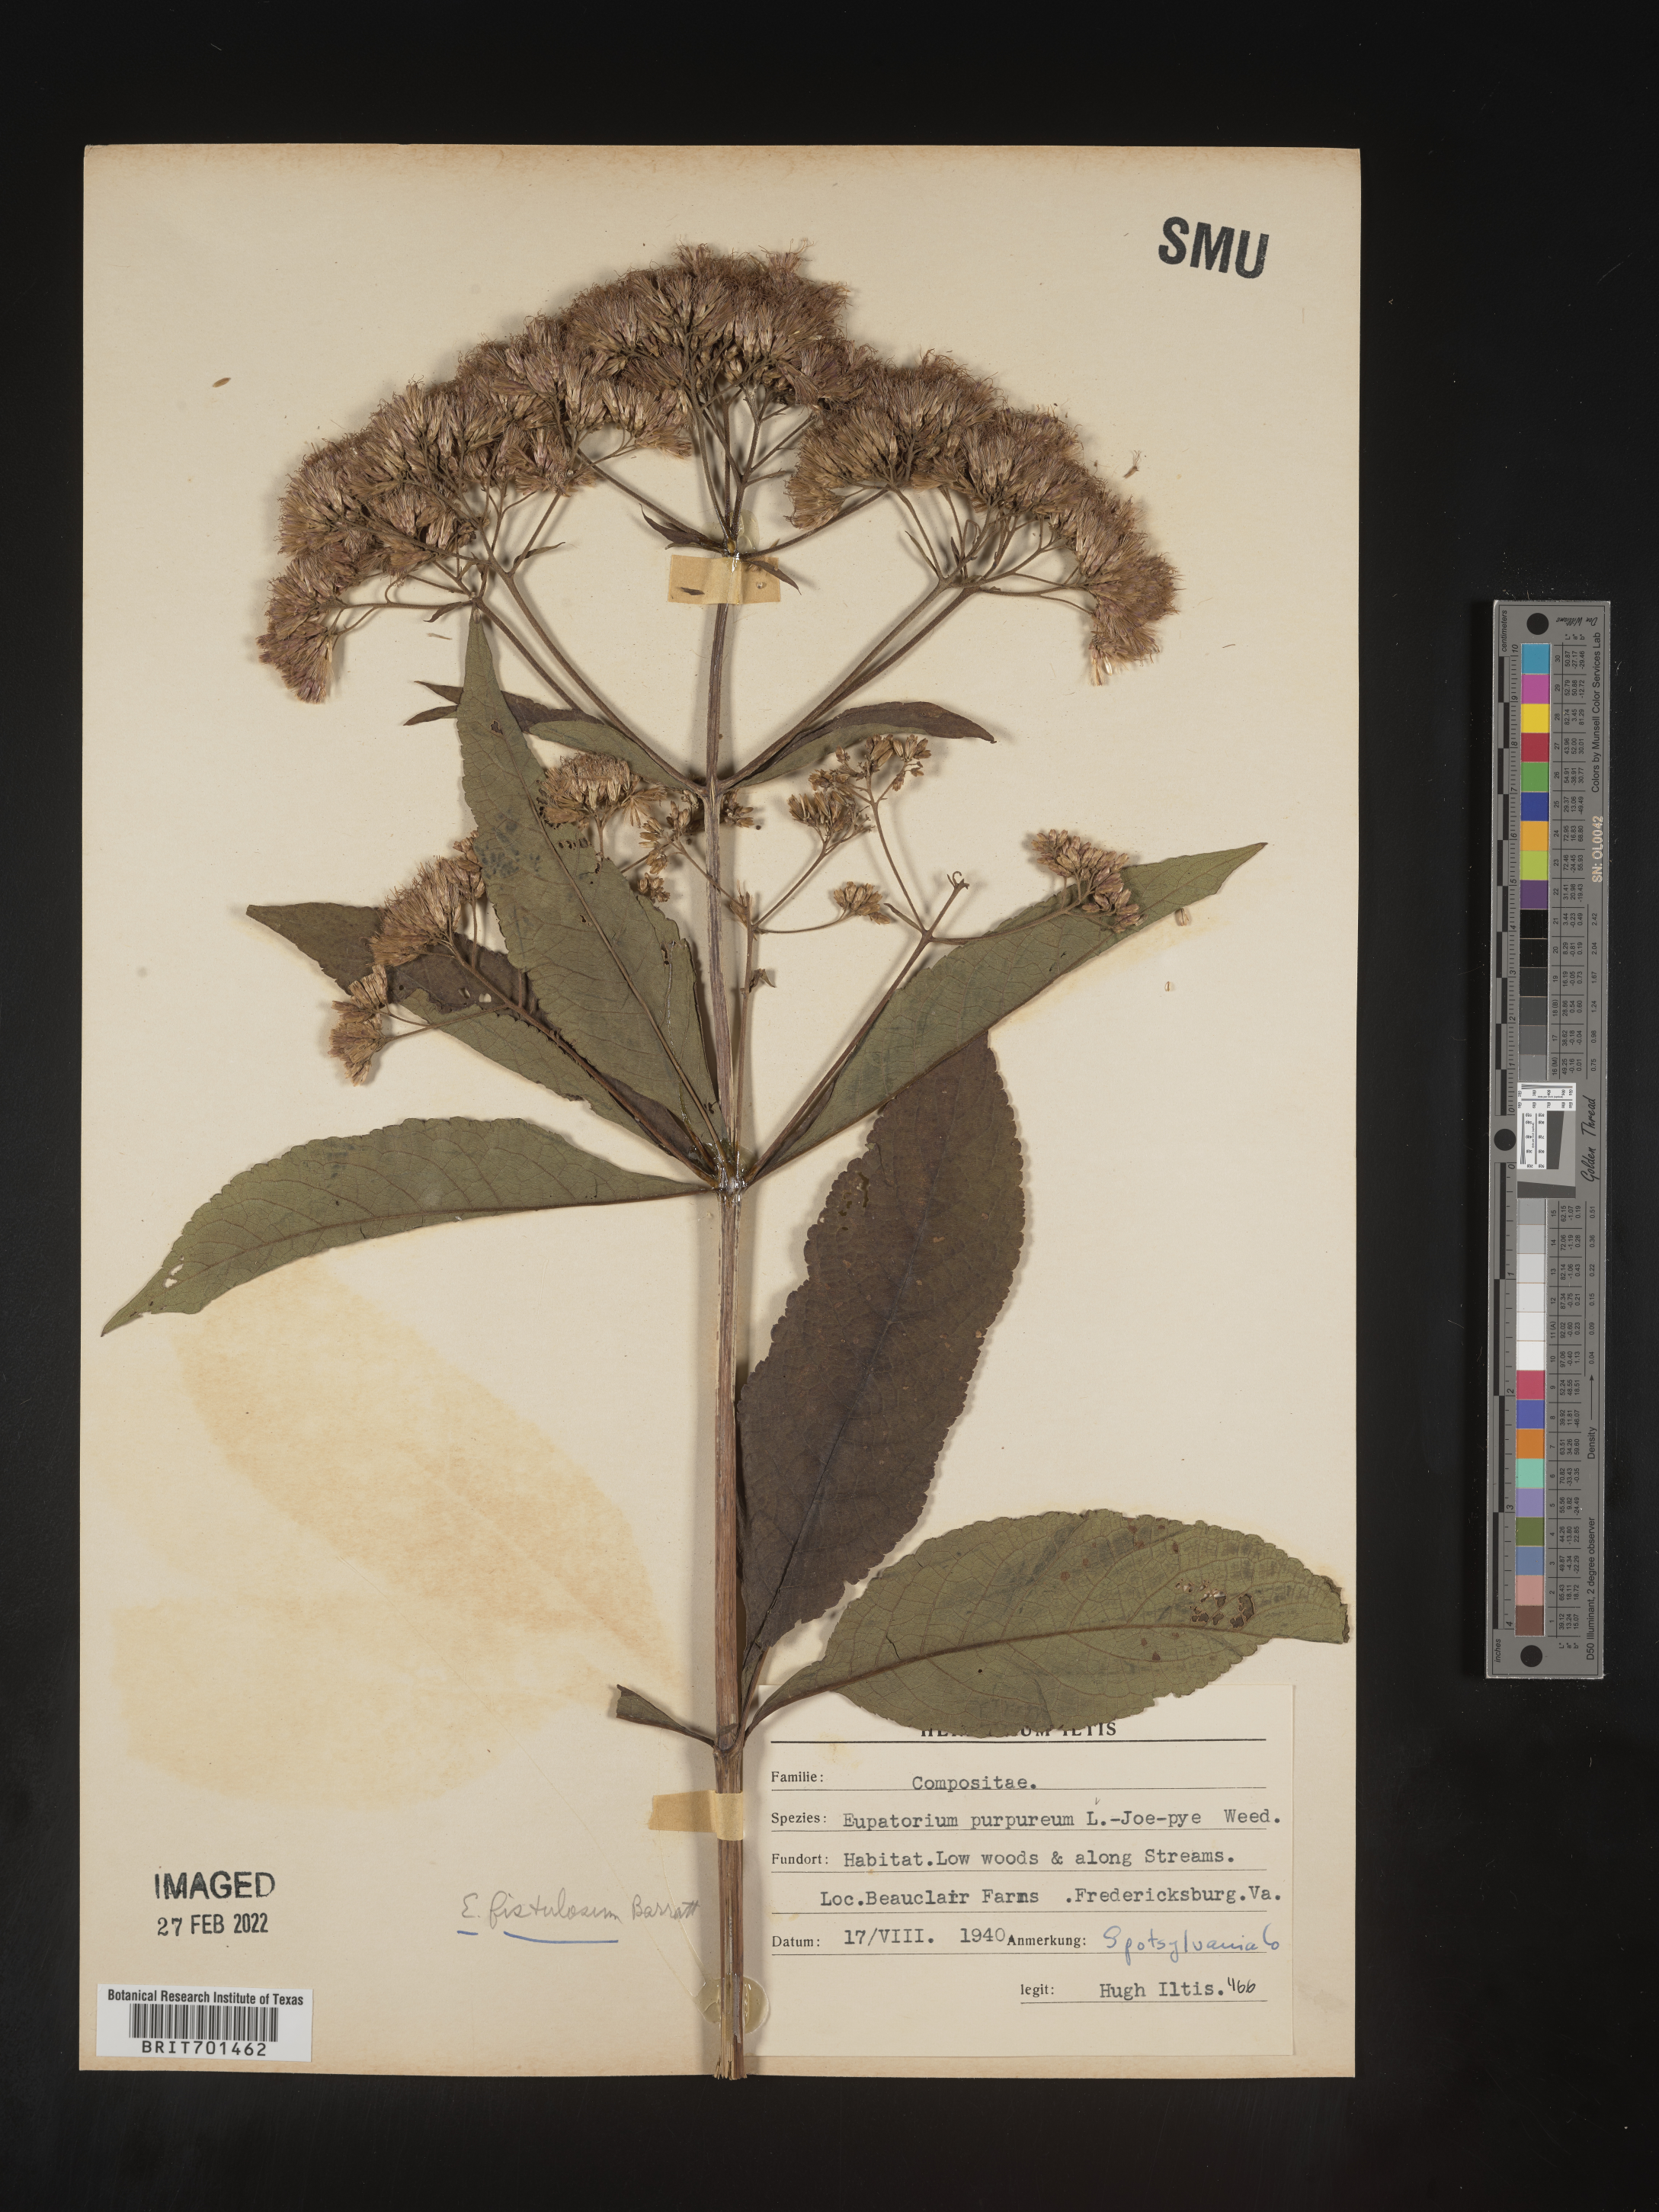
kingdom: Plantae
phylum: Tracheophyta
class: Magnoliopsida
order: Asterales
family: Asteraceae
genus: Eutrochium
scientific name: Eutrochium fistulosum
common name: Trumpetweed
